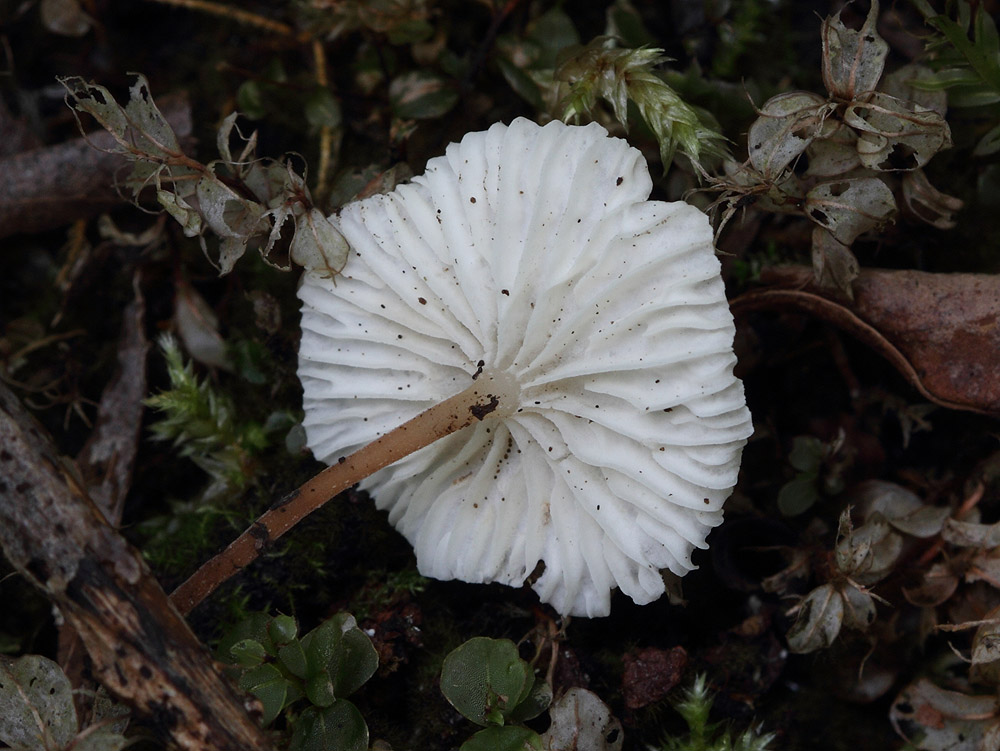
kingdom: Fungi
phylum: Basidiomycota
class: Agaricomycetes
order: Agaricales
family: Omphalotaceae
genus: Collybiopsis
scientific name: Collybiopsis vaillantii
